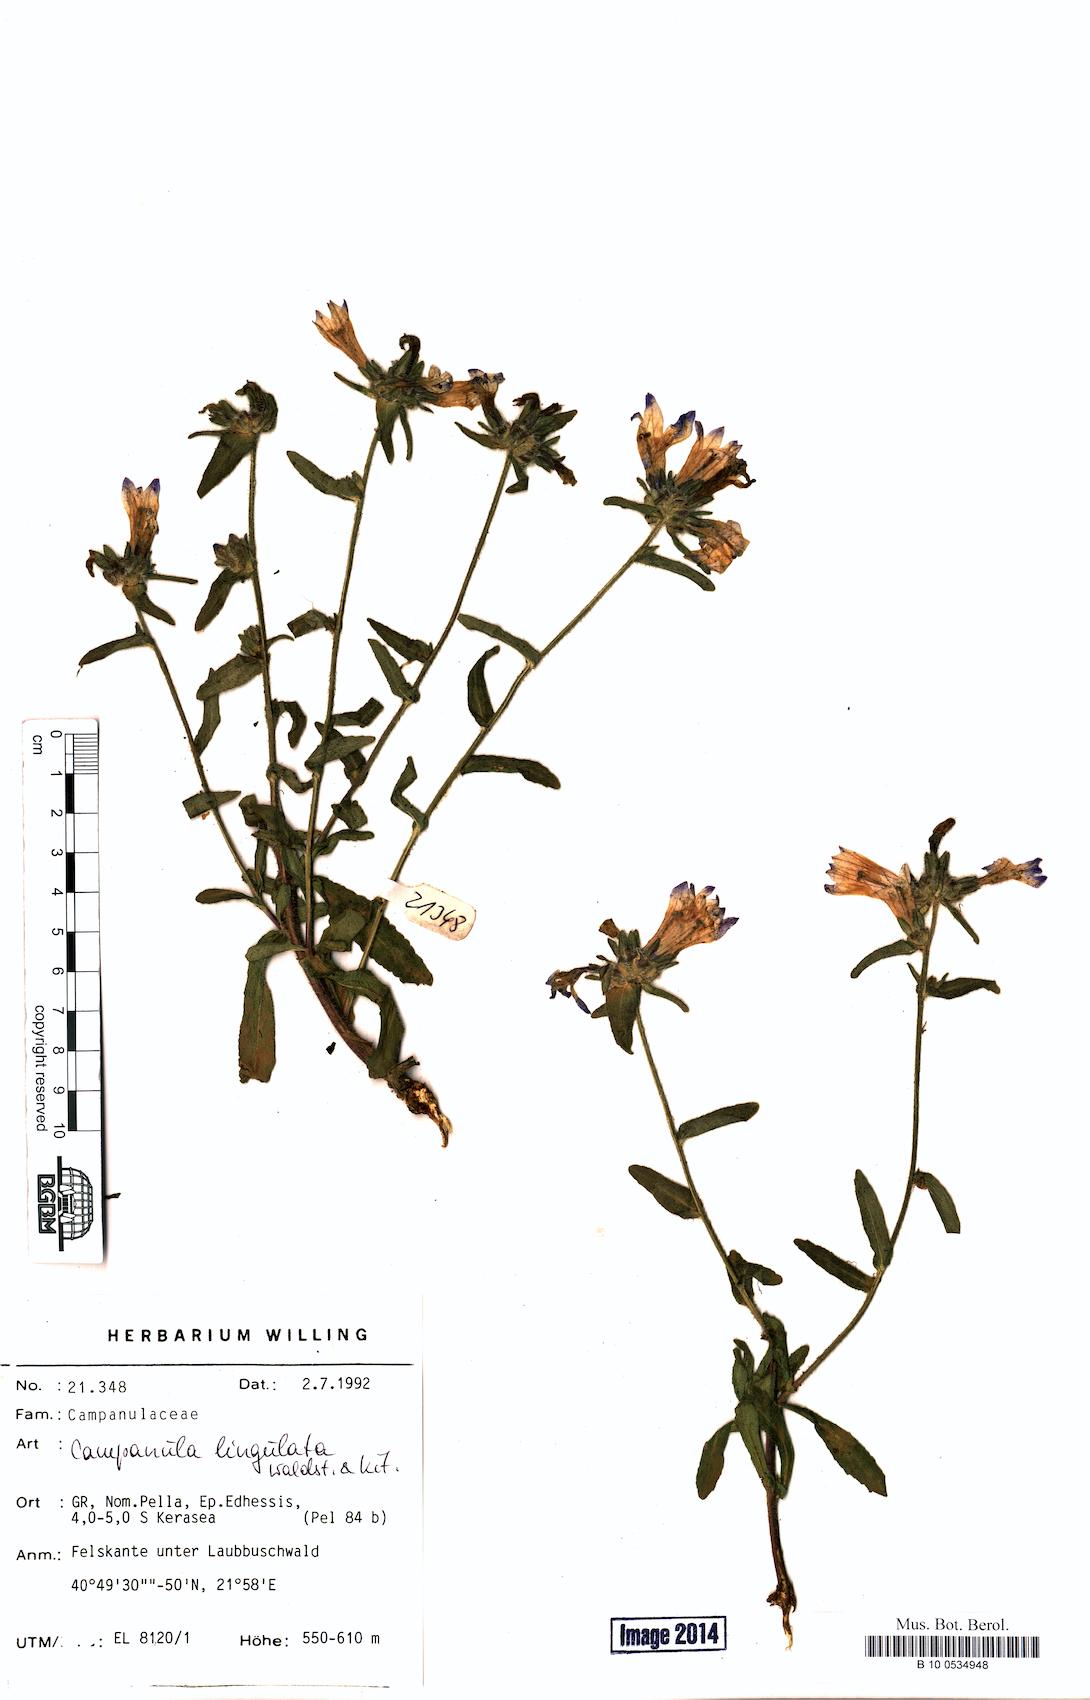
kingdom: Plantae
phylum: Tracheophyta
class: Magnoliopsida
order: Asterales
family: Campanulaceae
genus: Campanula
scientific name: Campanula lingulata
